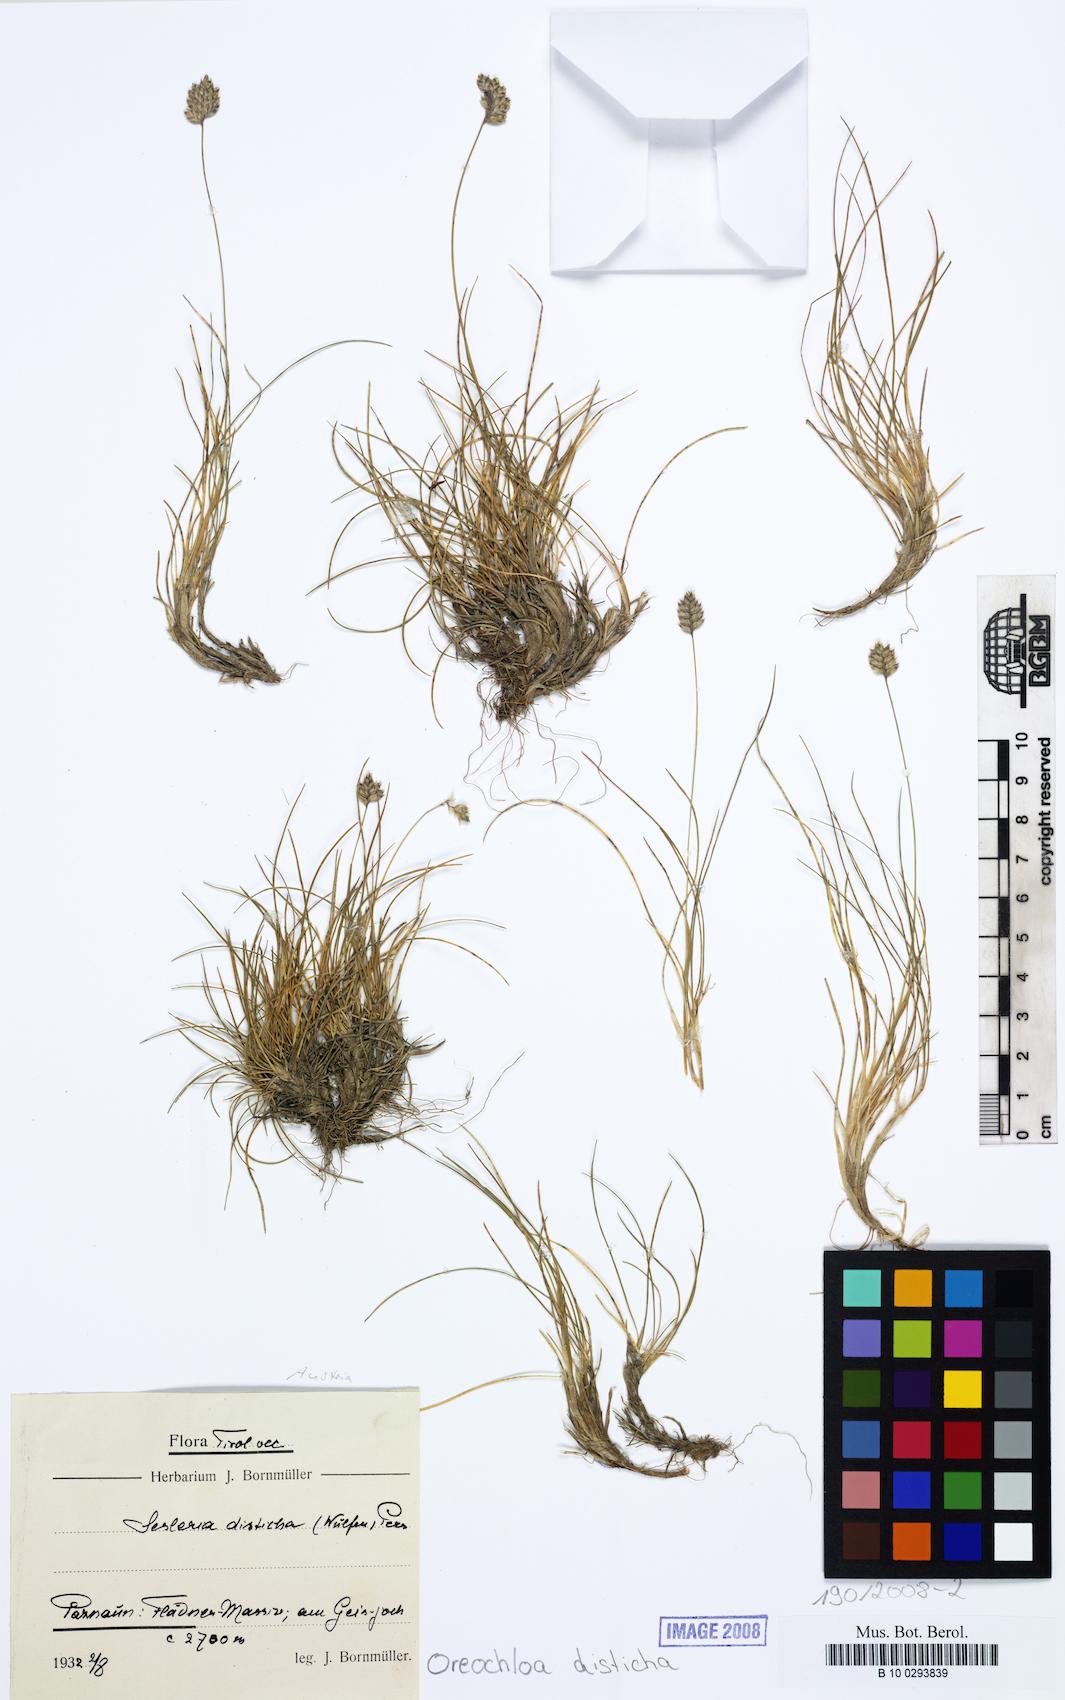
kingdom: Plantae
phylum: Tracheophyta
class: Liliopsida
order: Poales
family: Poaceae
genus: Oreochloa
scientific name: Oreochloa disticha
